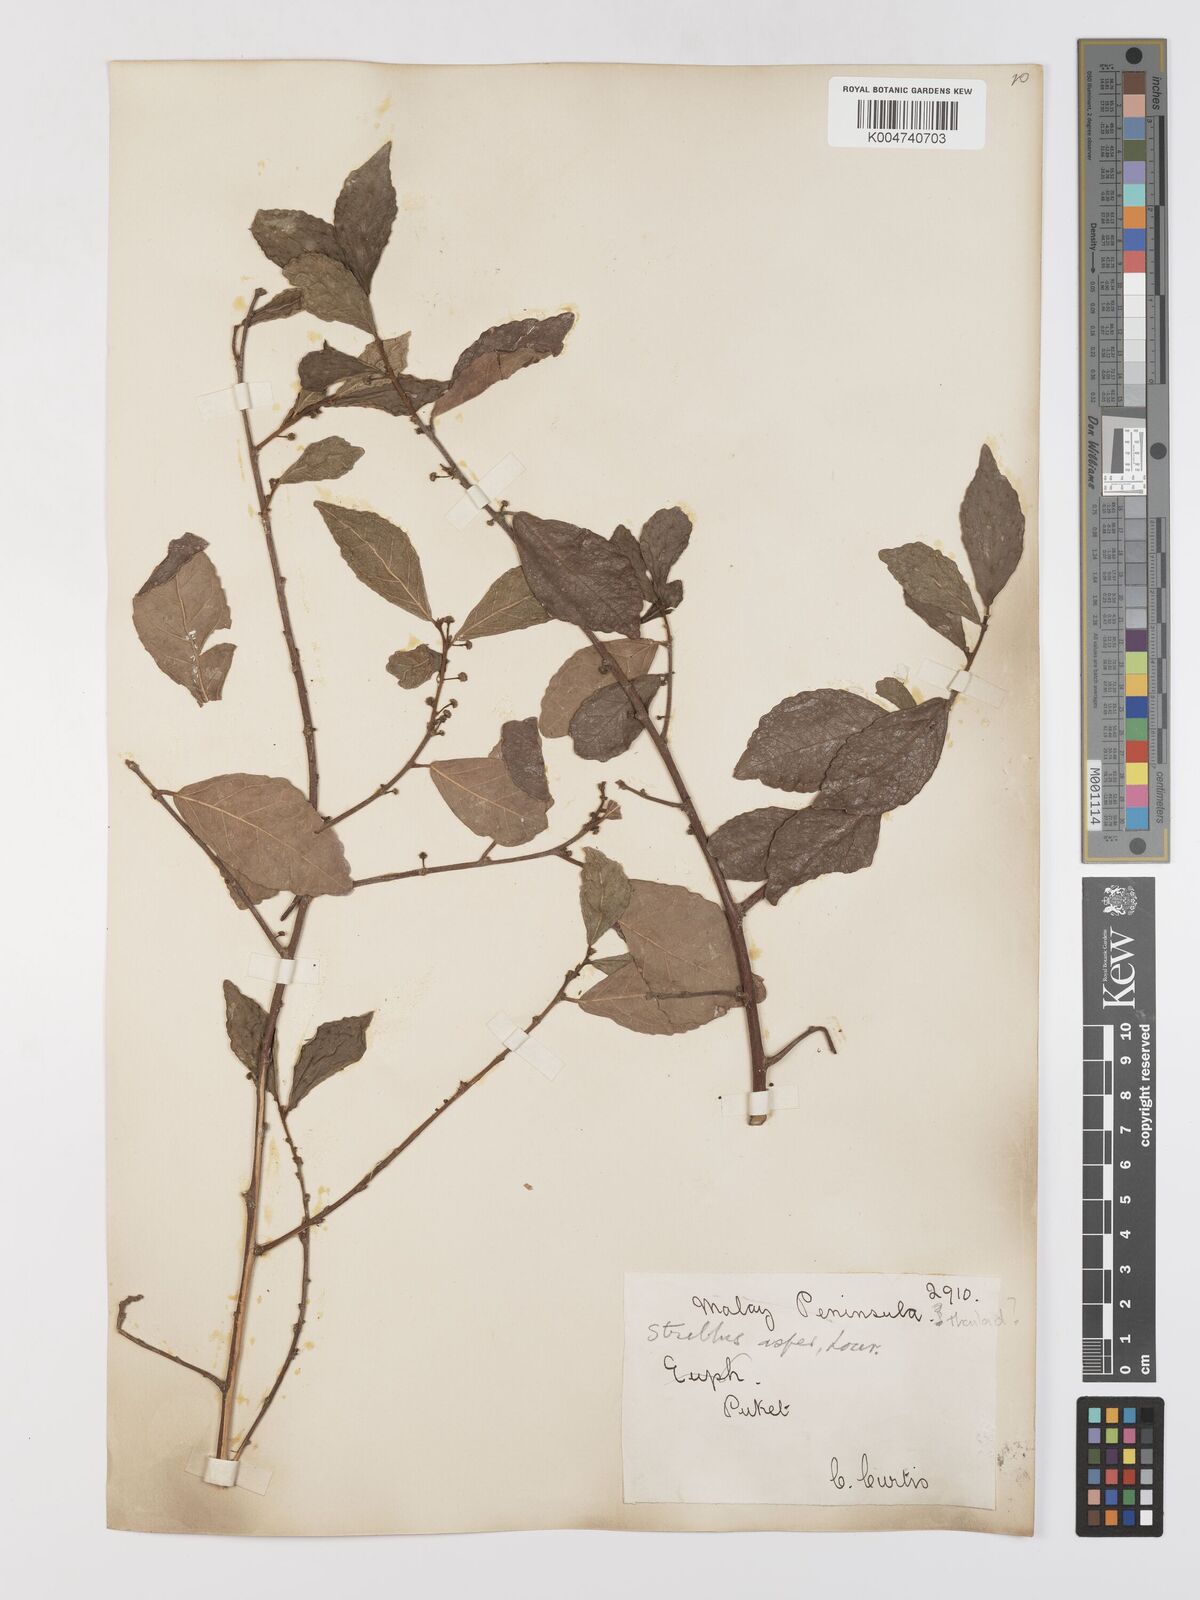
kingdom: Plantae
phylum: Tracheophyta
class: Magnoliopsida
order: Rosales
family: Moraceae
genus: Streblus
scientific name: Streblus asper
